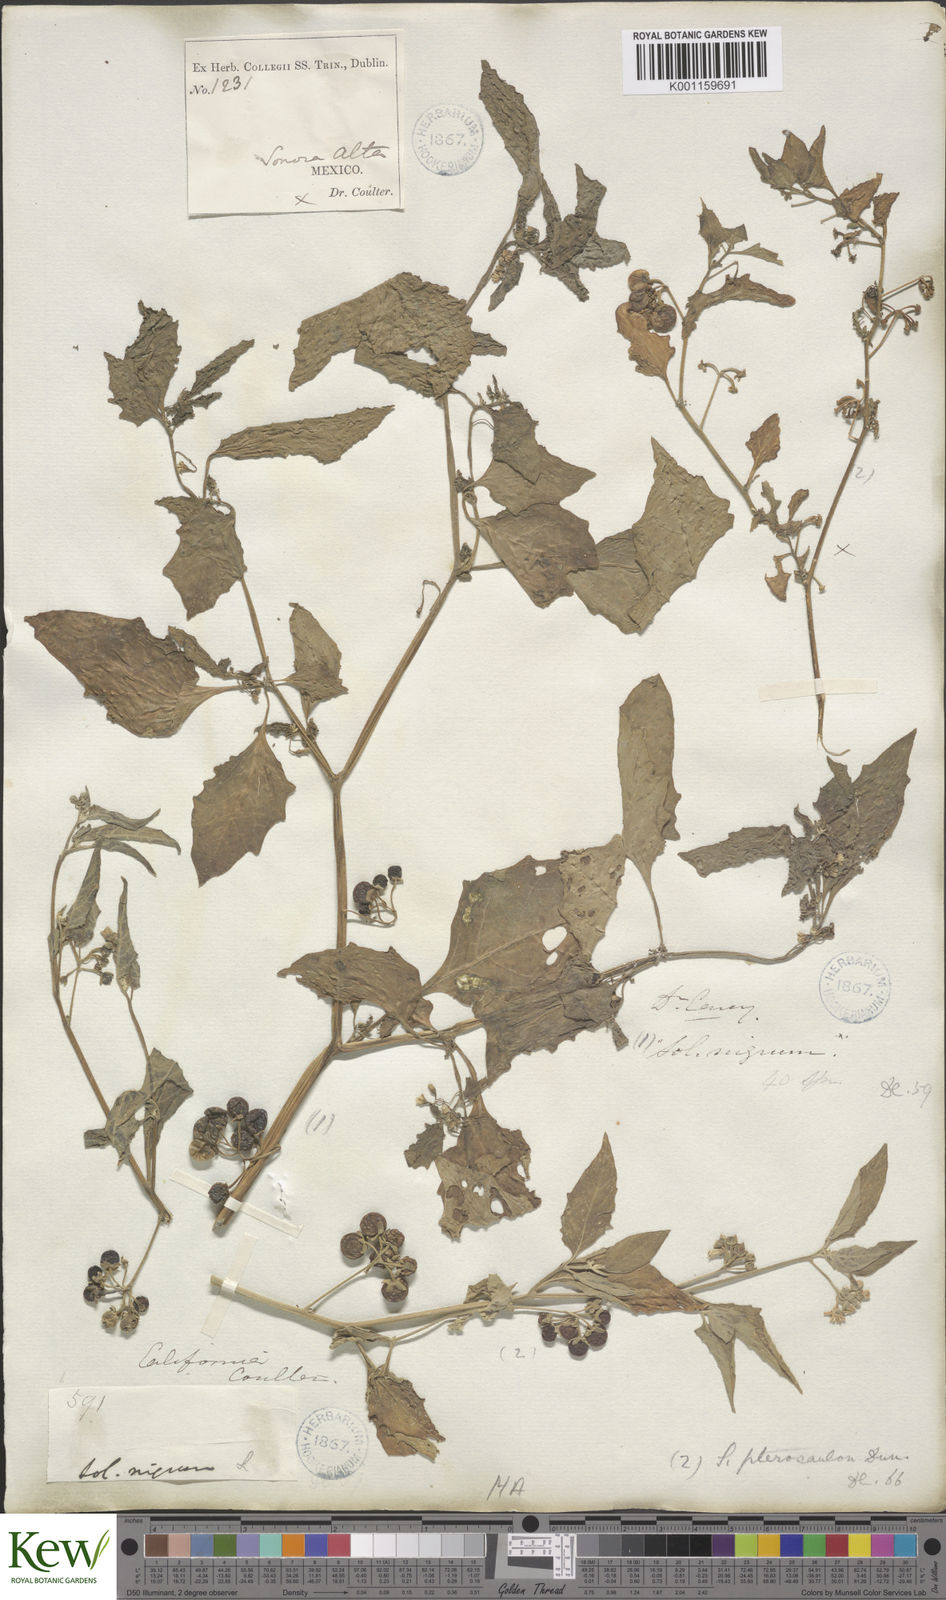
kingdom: Plantae
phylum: Tracheophyta
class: Magnoliopsida
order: Solanales
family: Solanaceae
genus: Solanum
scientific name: Solanum nigrum
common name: Black nightshade
